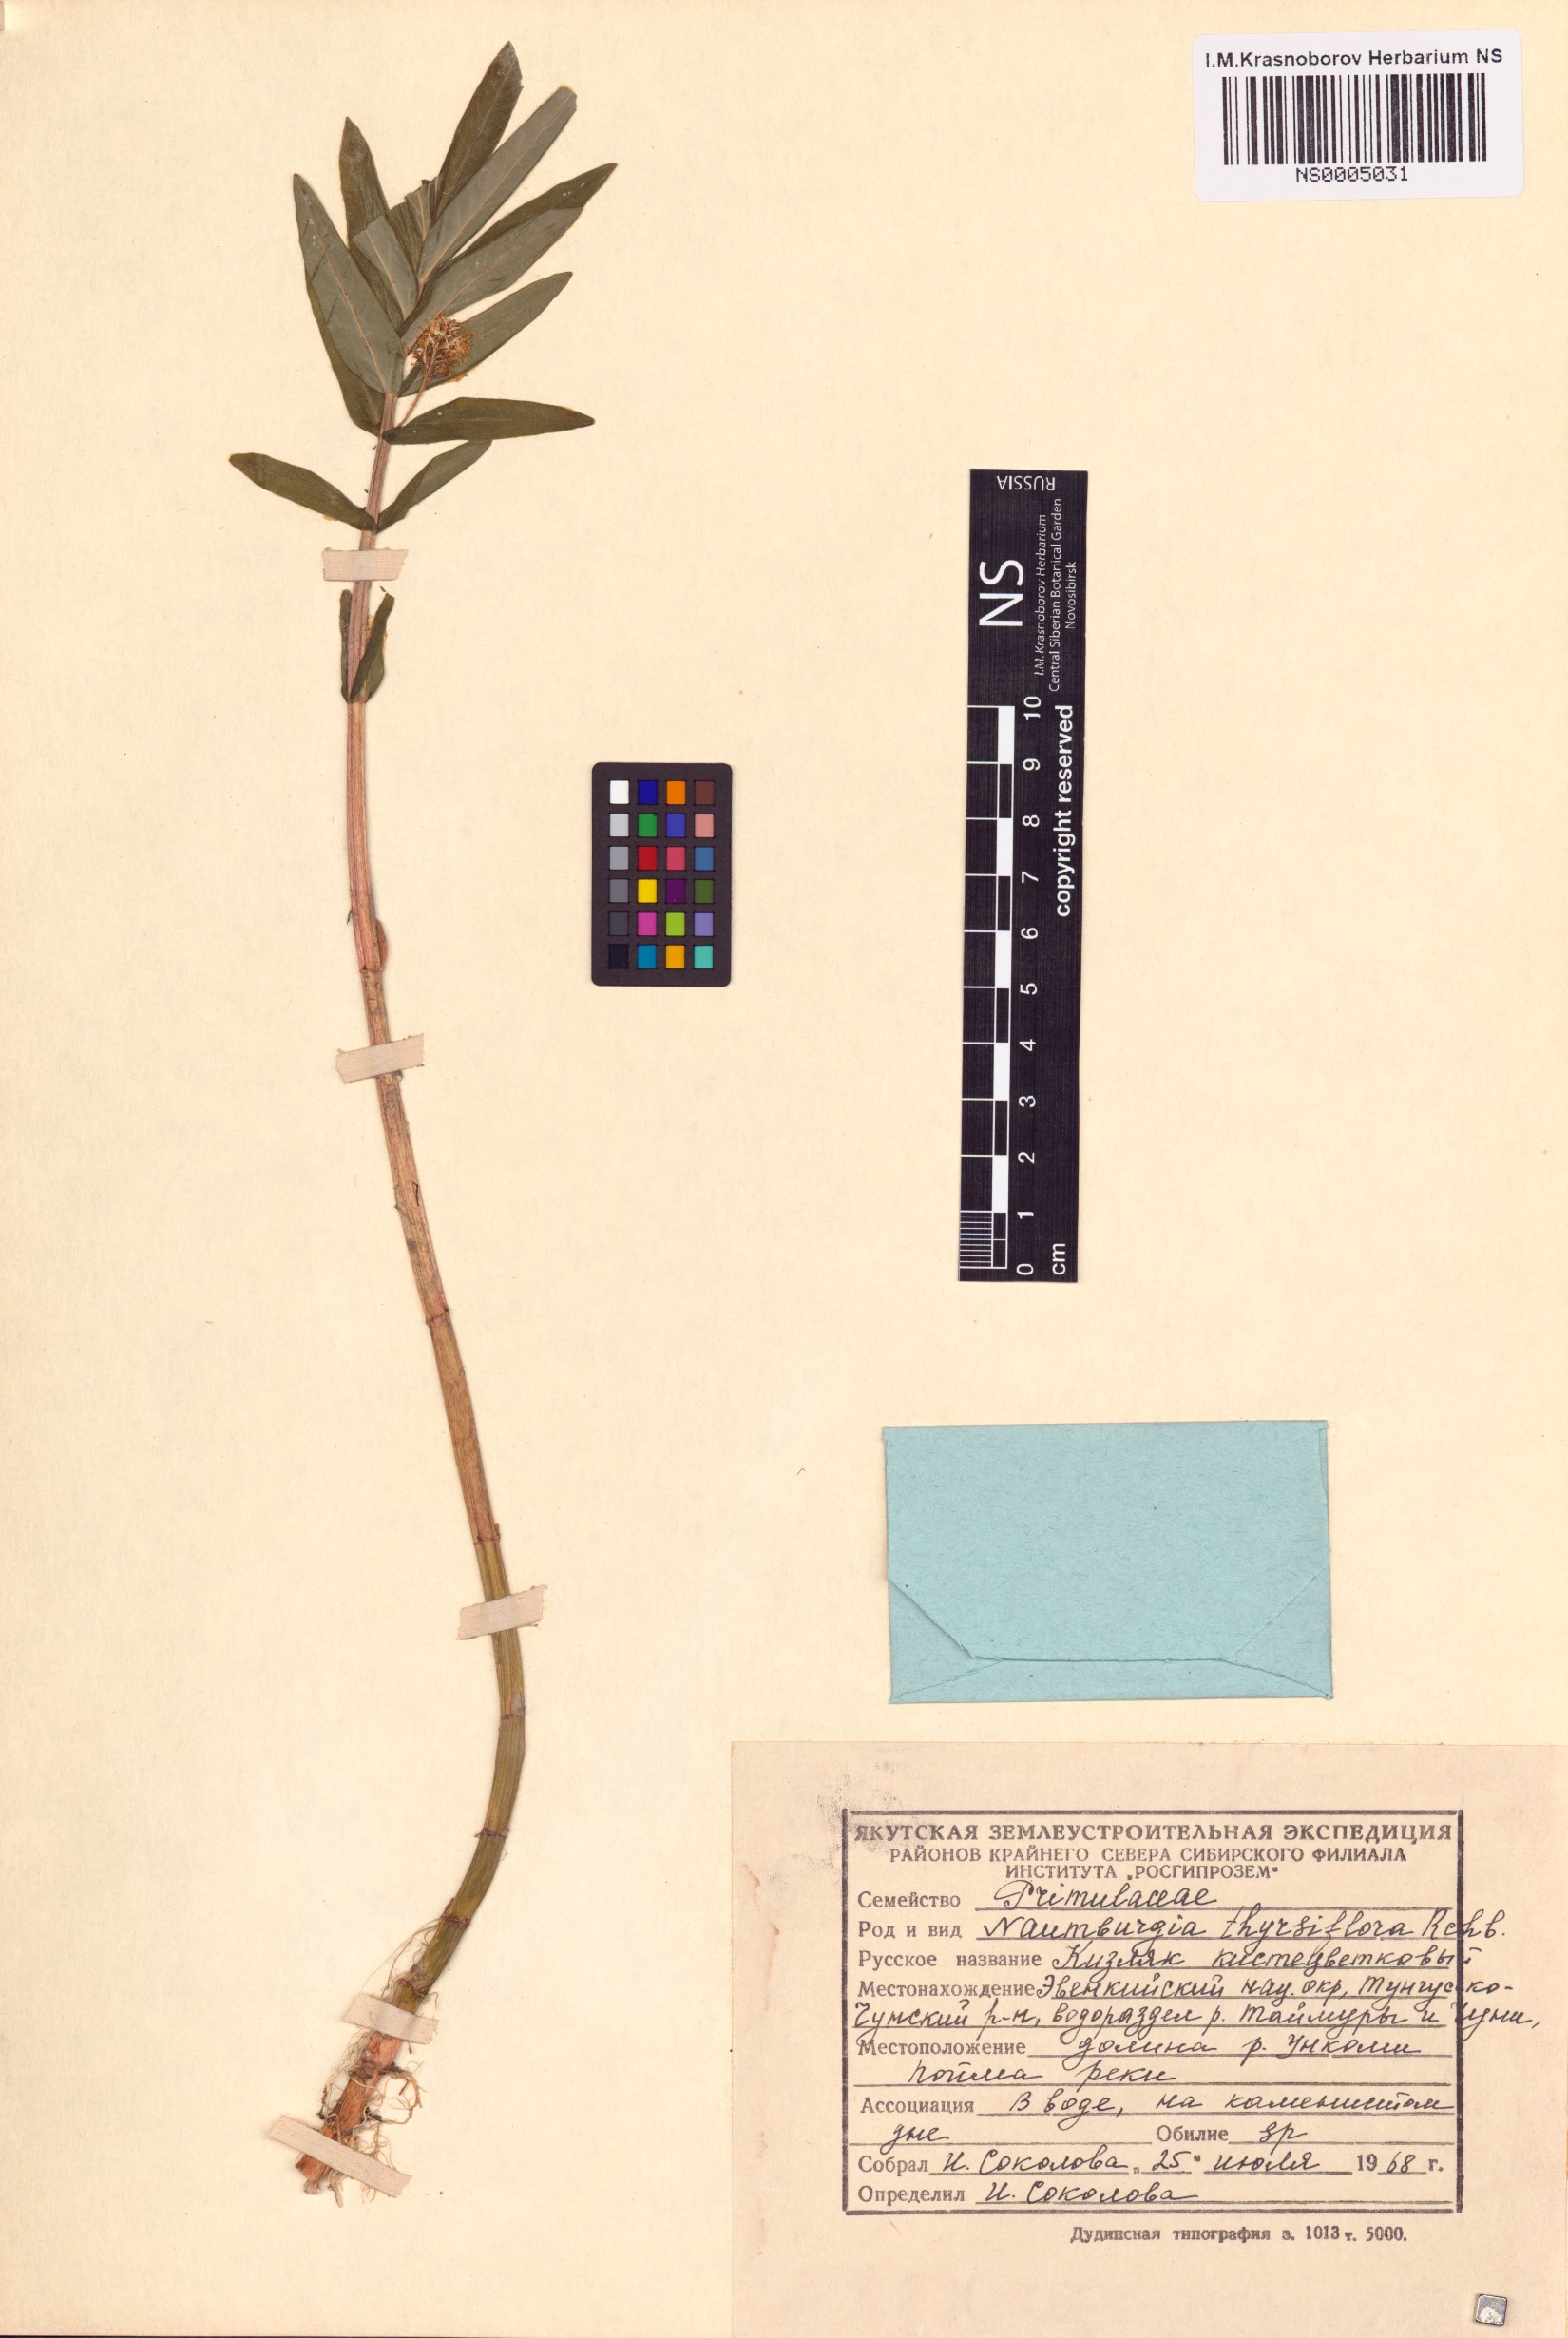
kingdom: Plantae
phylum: Tracheophyta
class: Magnoliopsida
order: Ericales
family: Primulaceae
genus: Lysimachia
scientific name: Lysimachia thyrsiflora
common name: Tufted loosestrife
